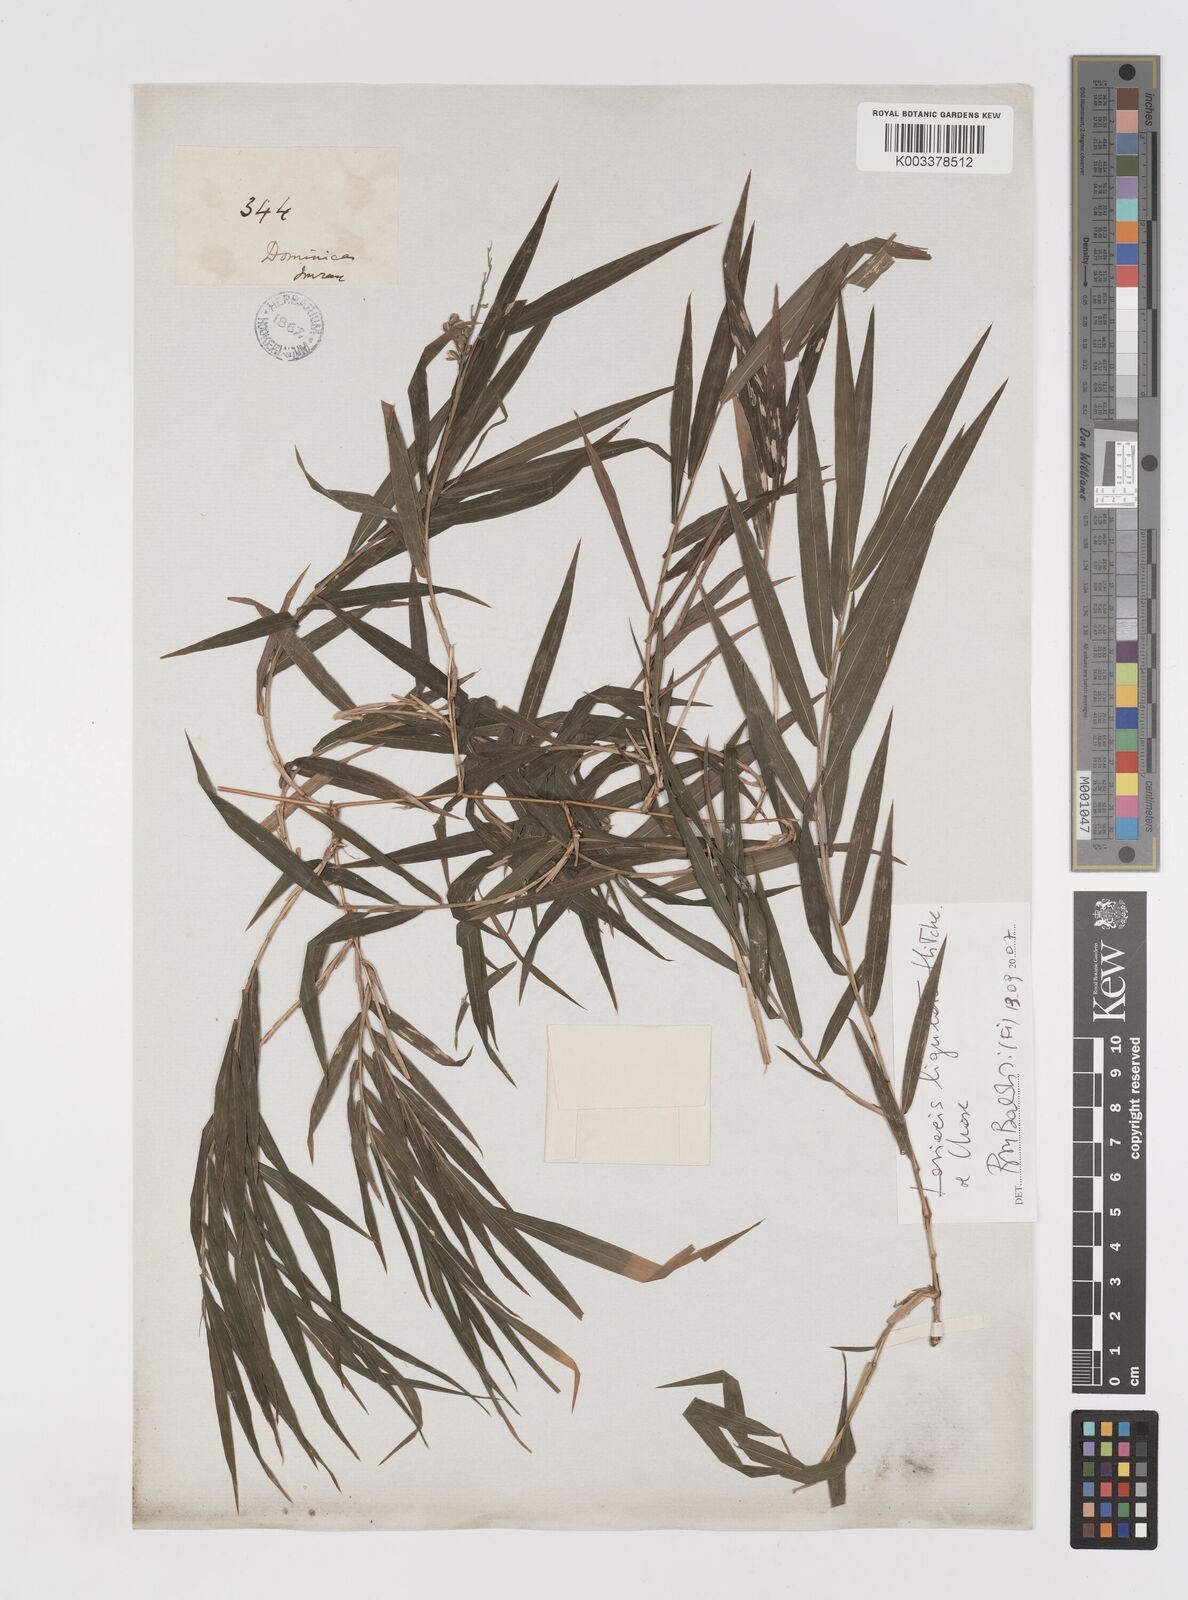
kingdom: Plantae
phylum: Tracheophyta
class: Liliopsida
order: Poales
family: Poaceae
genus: Lasiacis
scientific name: Lasiacis ligulata
